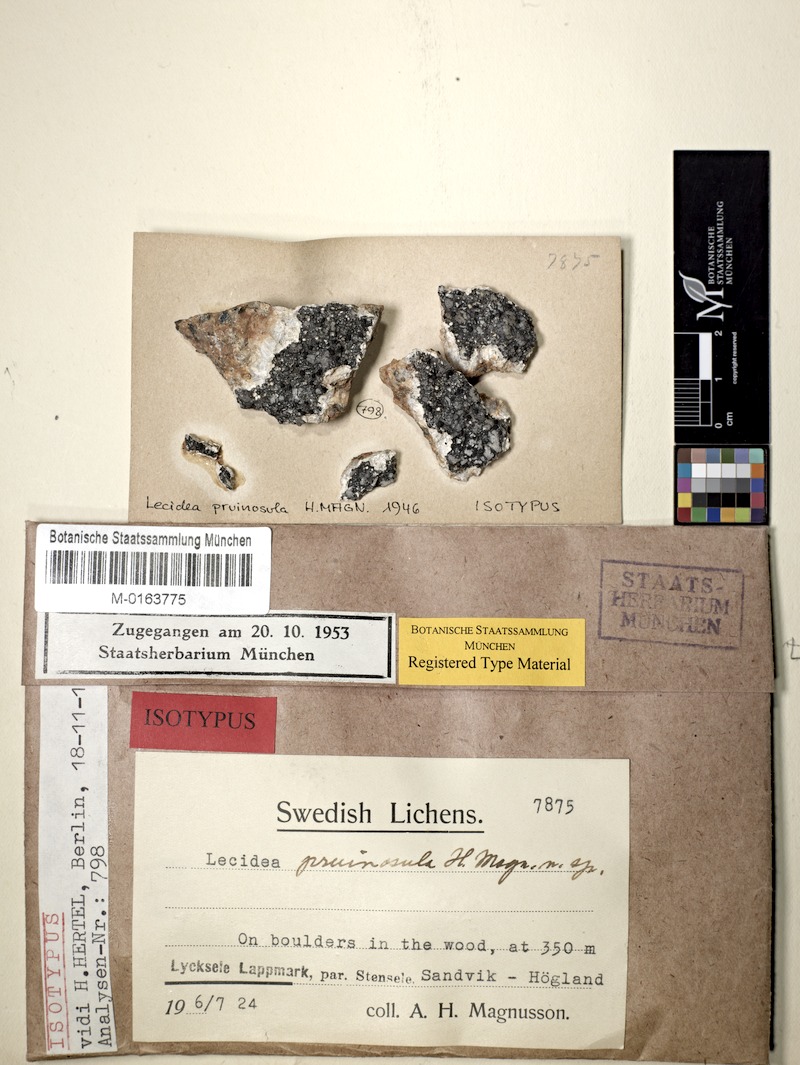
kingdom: Fungi
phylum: Ascomycota
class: Lecanoromycetes
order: Lecideales
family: Lecideaceae
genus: Lecidea
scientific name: Lecidea lapicida
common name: Gray-orange disk lichen
